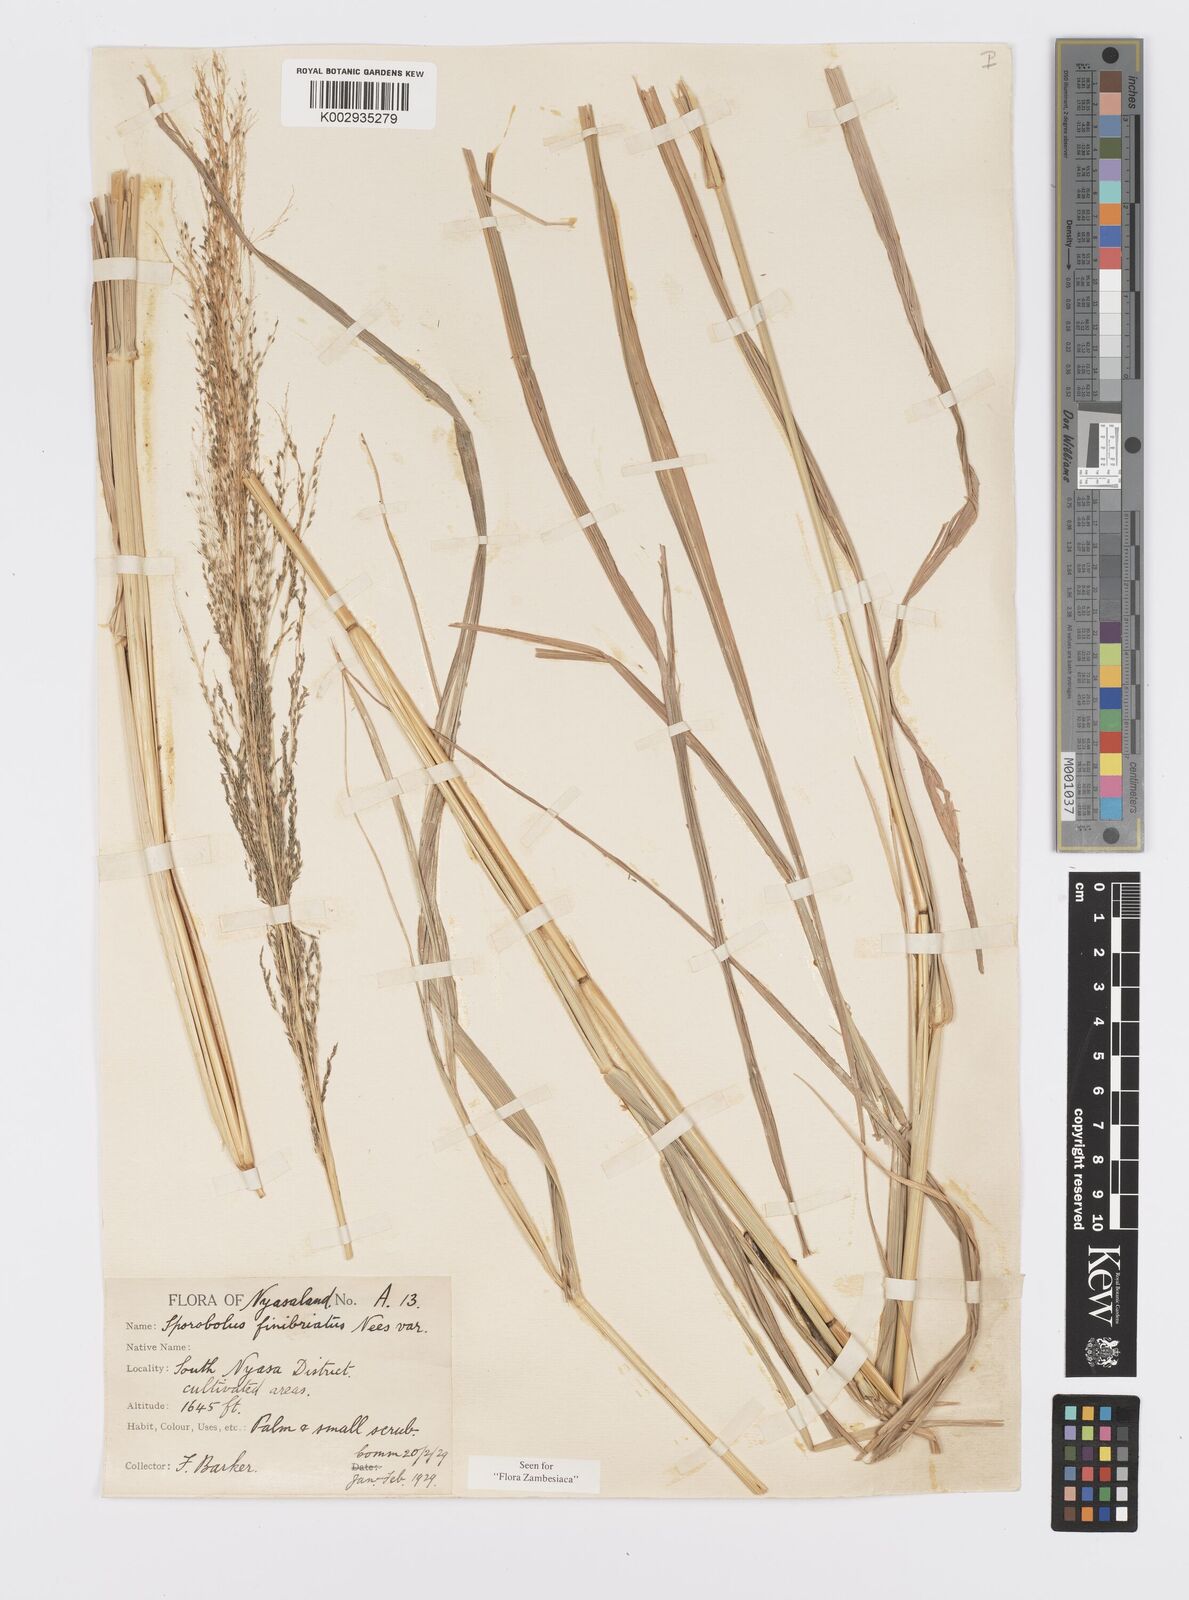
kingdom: Plantae
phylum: Tracheophyta
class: Liliopsida
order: Poales
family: Poaceae
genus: Sporobolus
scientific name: Sporobolus fimbriatus
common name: Fringed dropseed
